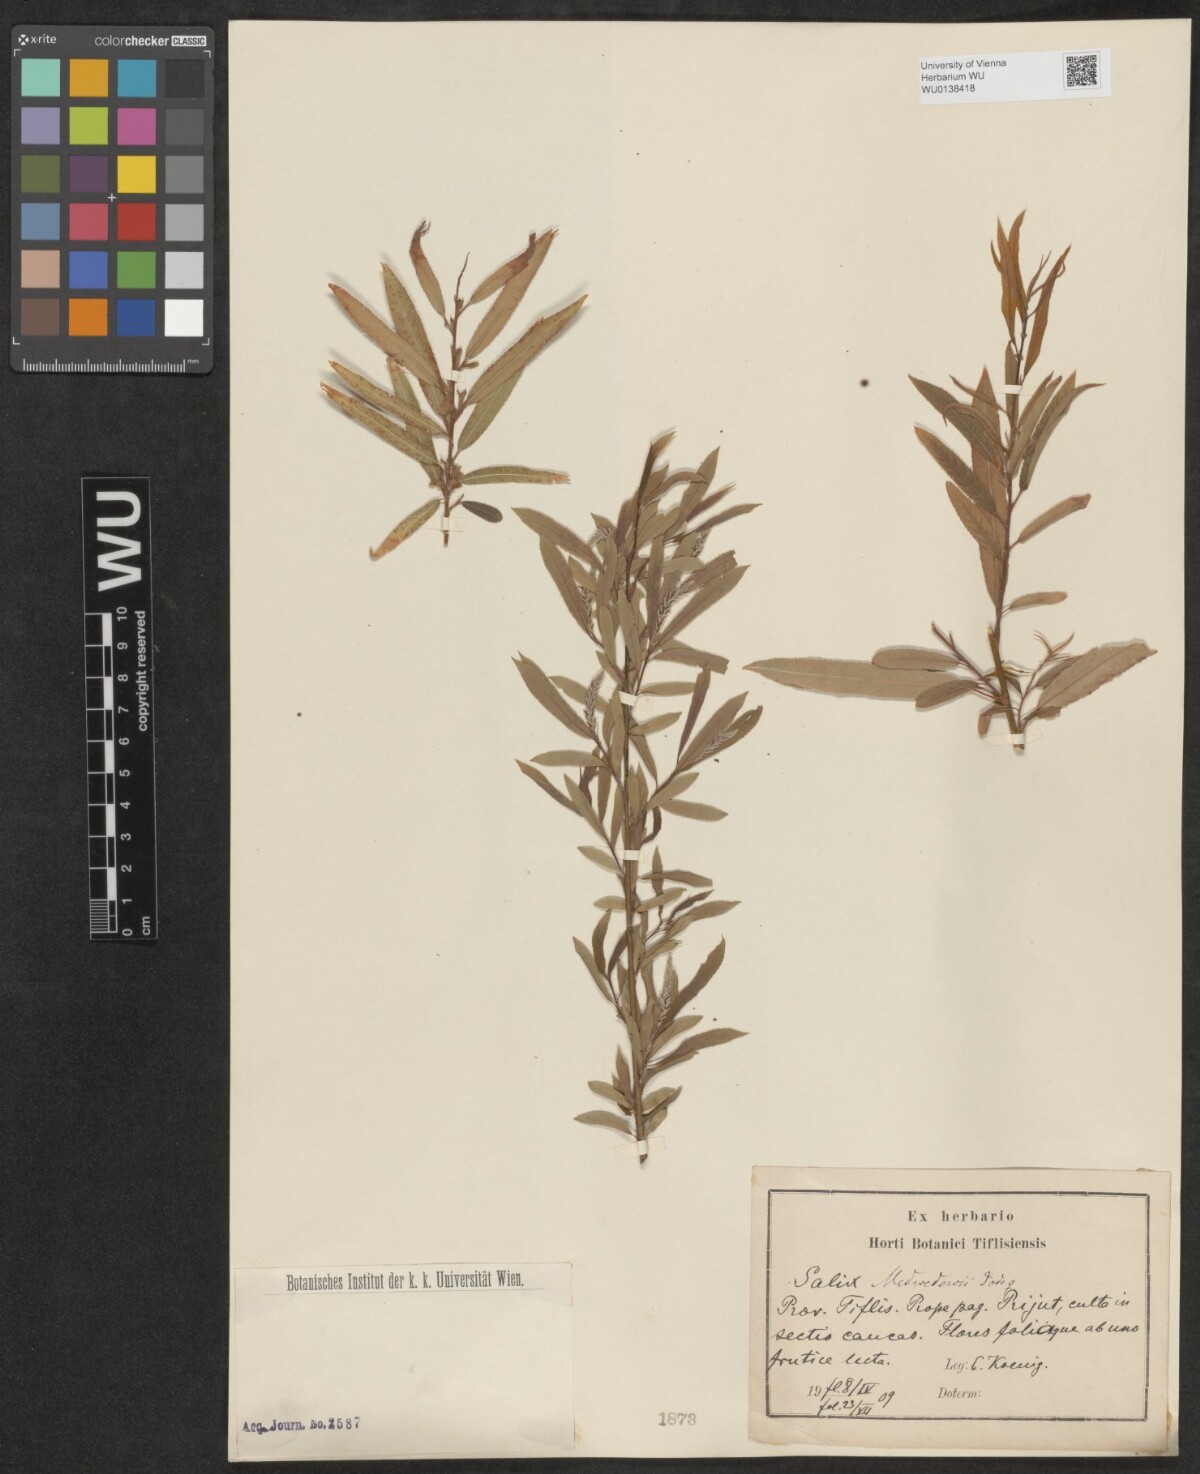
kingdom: Plantae
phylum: Tracheophyta
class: Magnoliopsida
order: Malpighiales
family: Salicaceae
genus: Salix
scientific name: Salix triandra
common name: Almond willow
